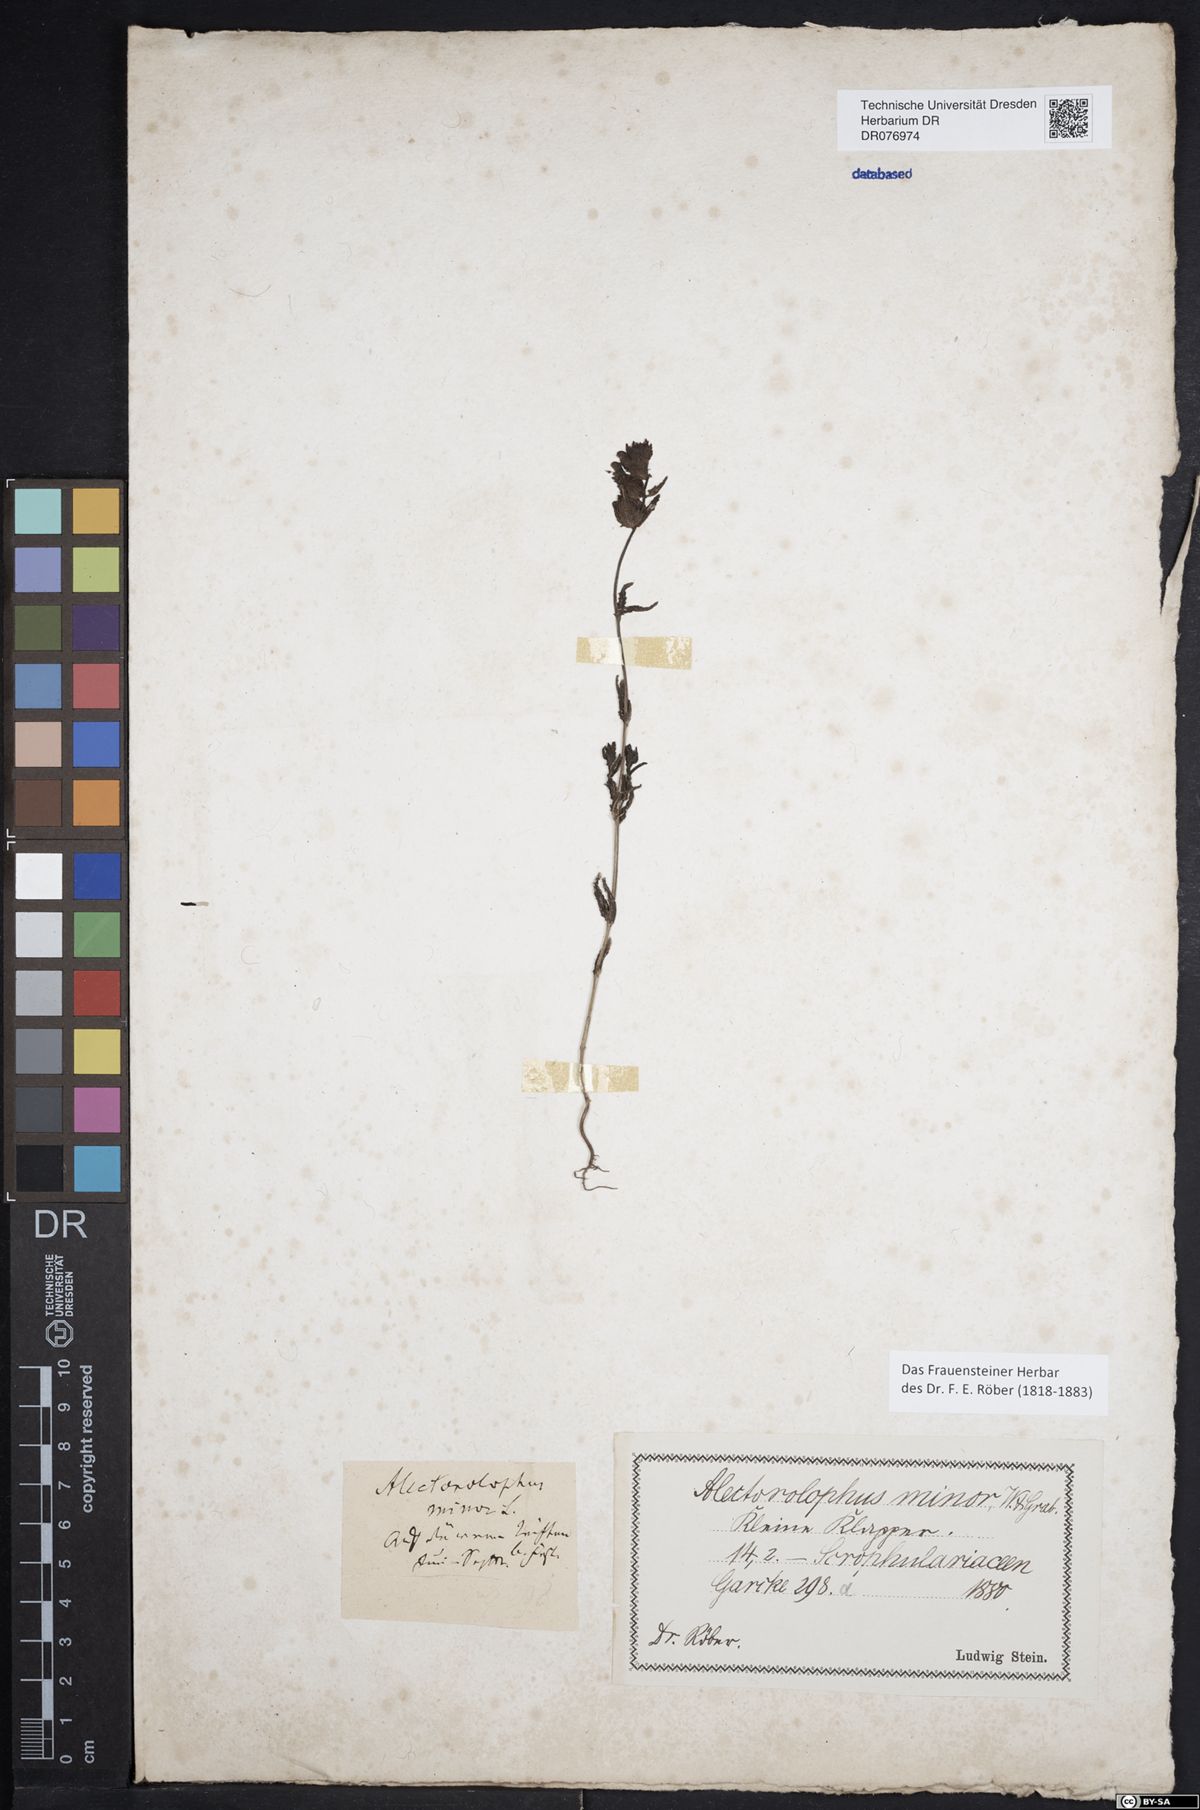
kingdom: Plantae
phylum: Tracheophyta
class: Magnoliopsida
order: Lamiales
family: Orobanchaceae
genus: Rhinanthus
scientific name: Rhinanthus minor
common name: Yellow-rattle
